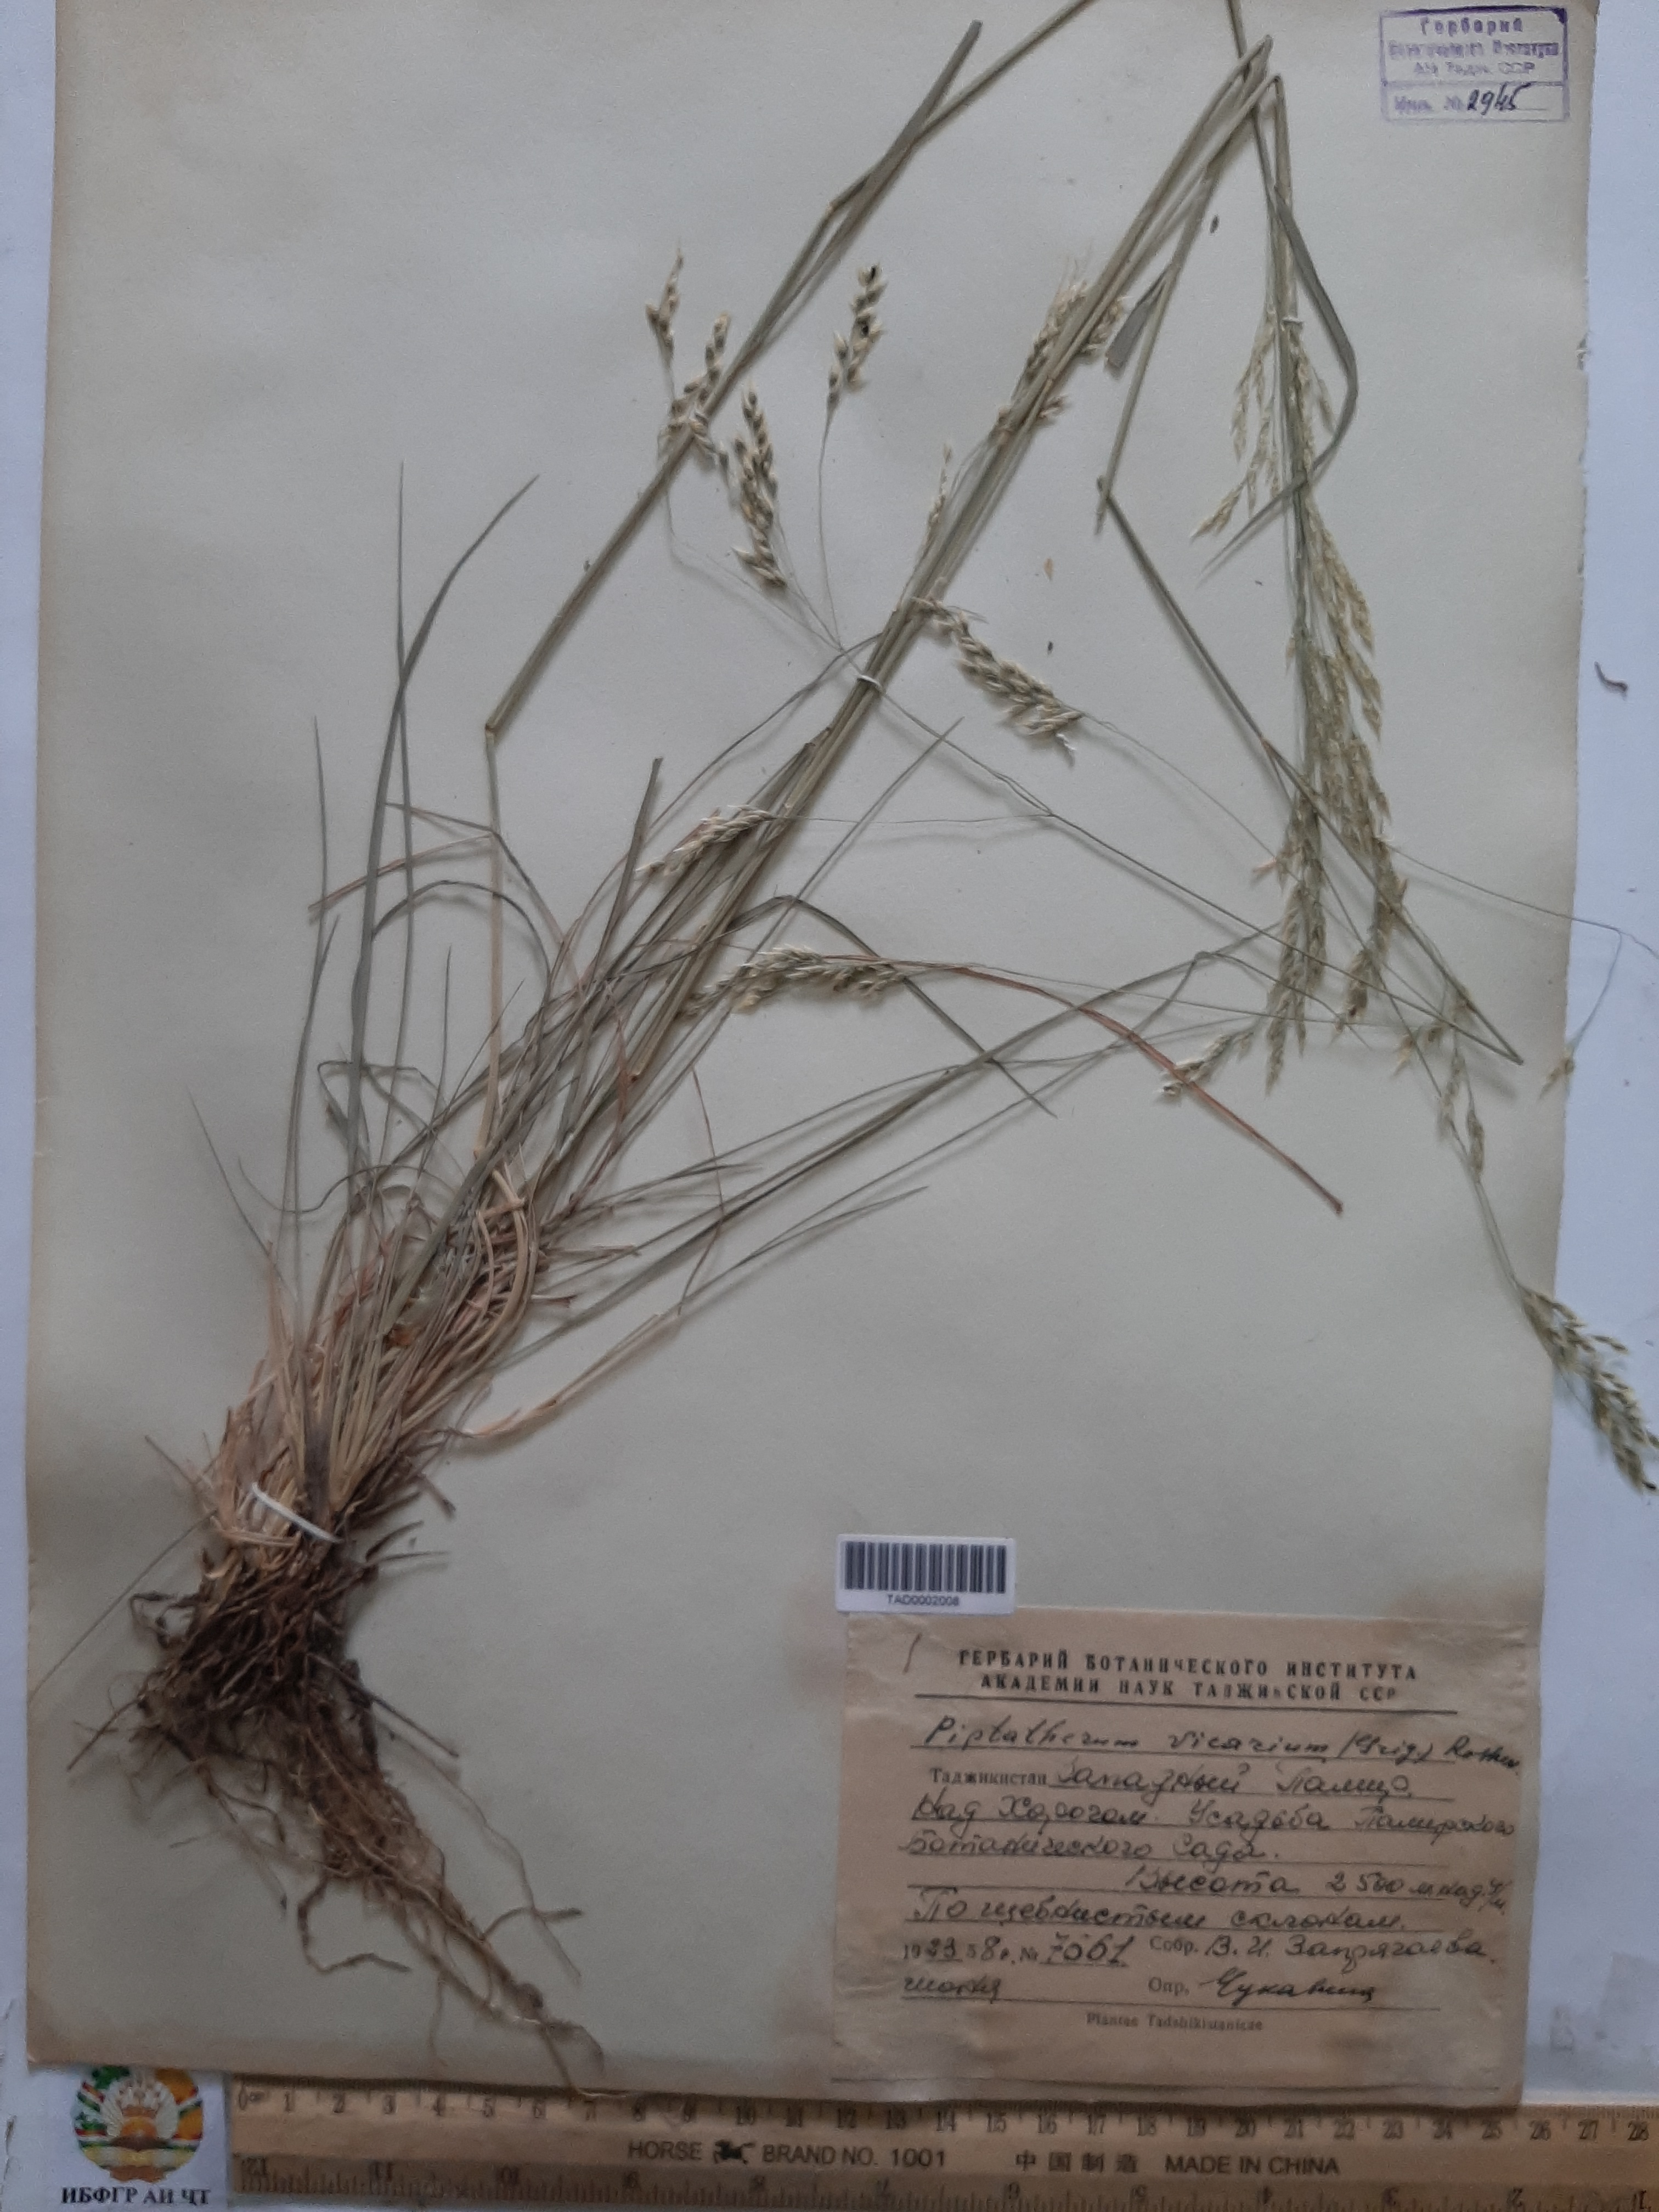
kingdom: Plantae
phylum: Tracheophyta
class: Liliopsida
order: Poales
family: Poaceae
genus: Piptatherum
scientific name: Piptatherum microcarpum
